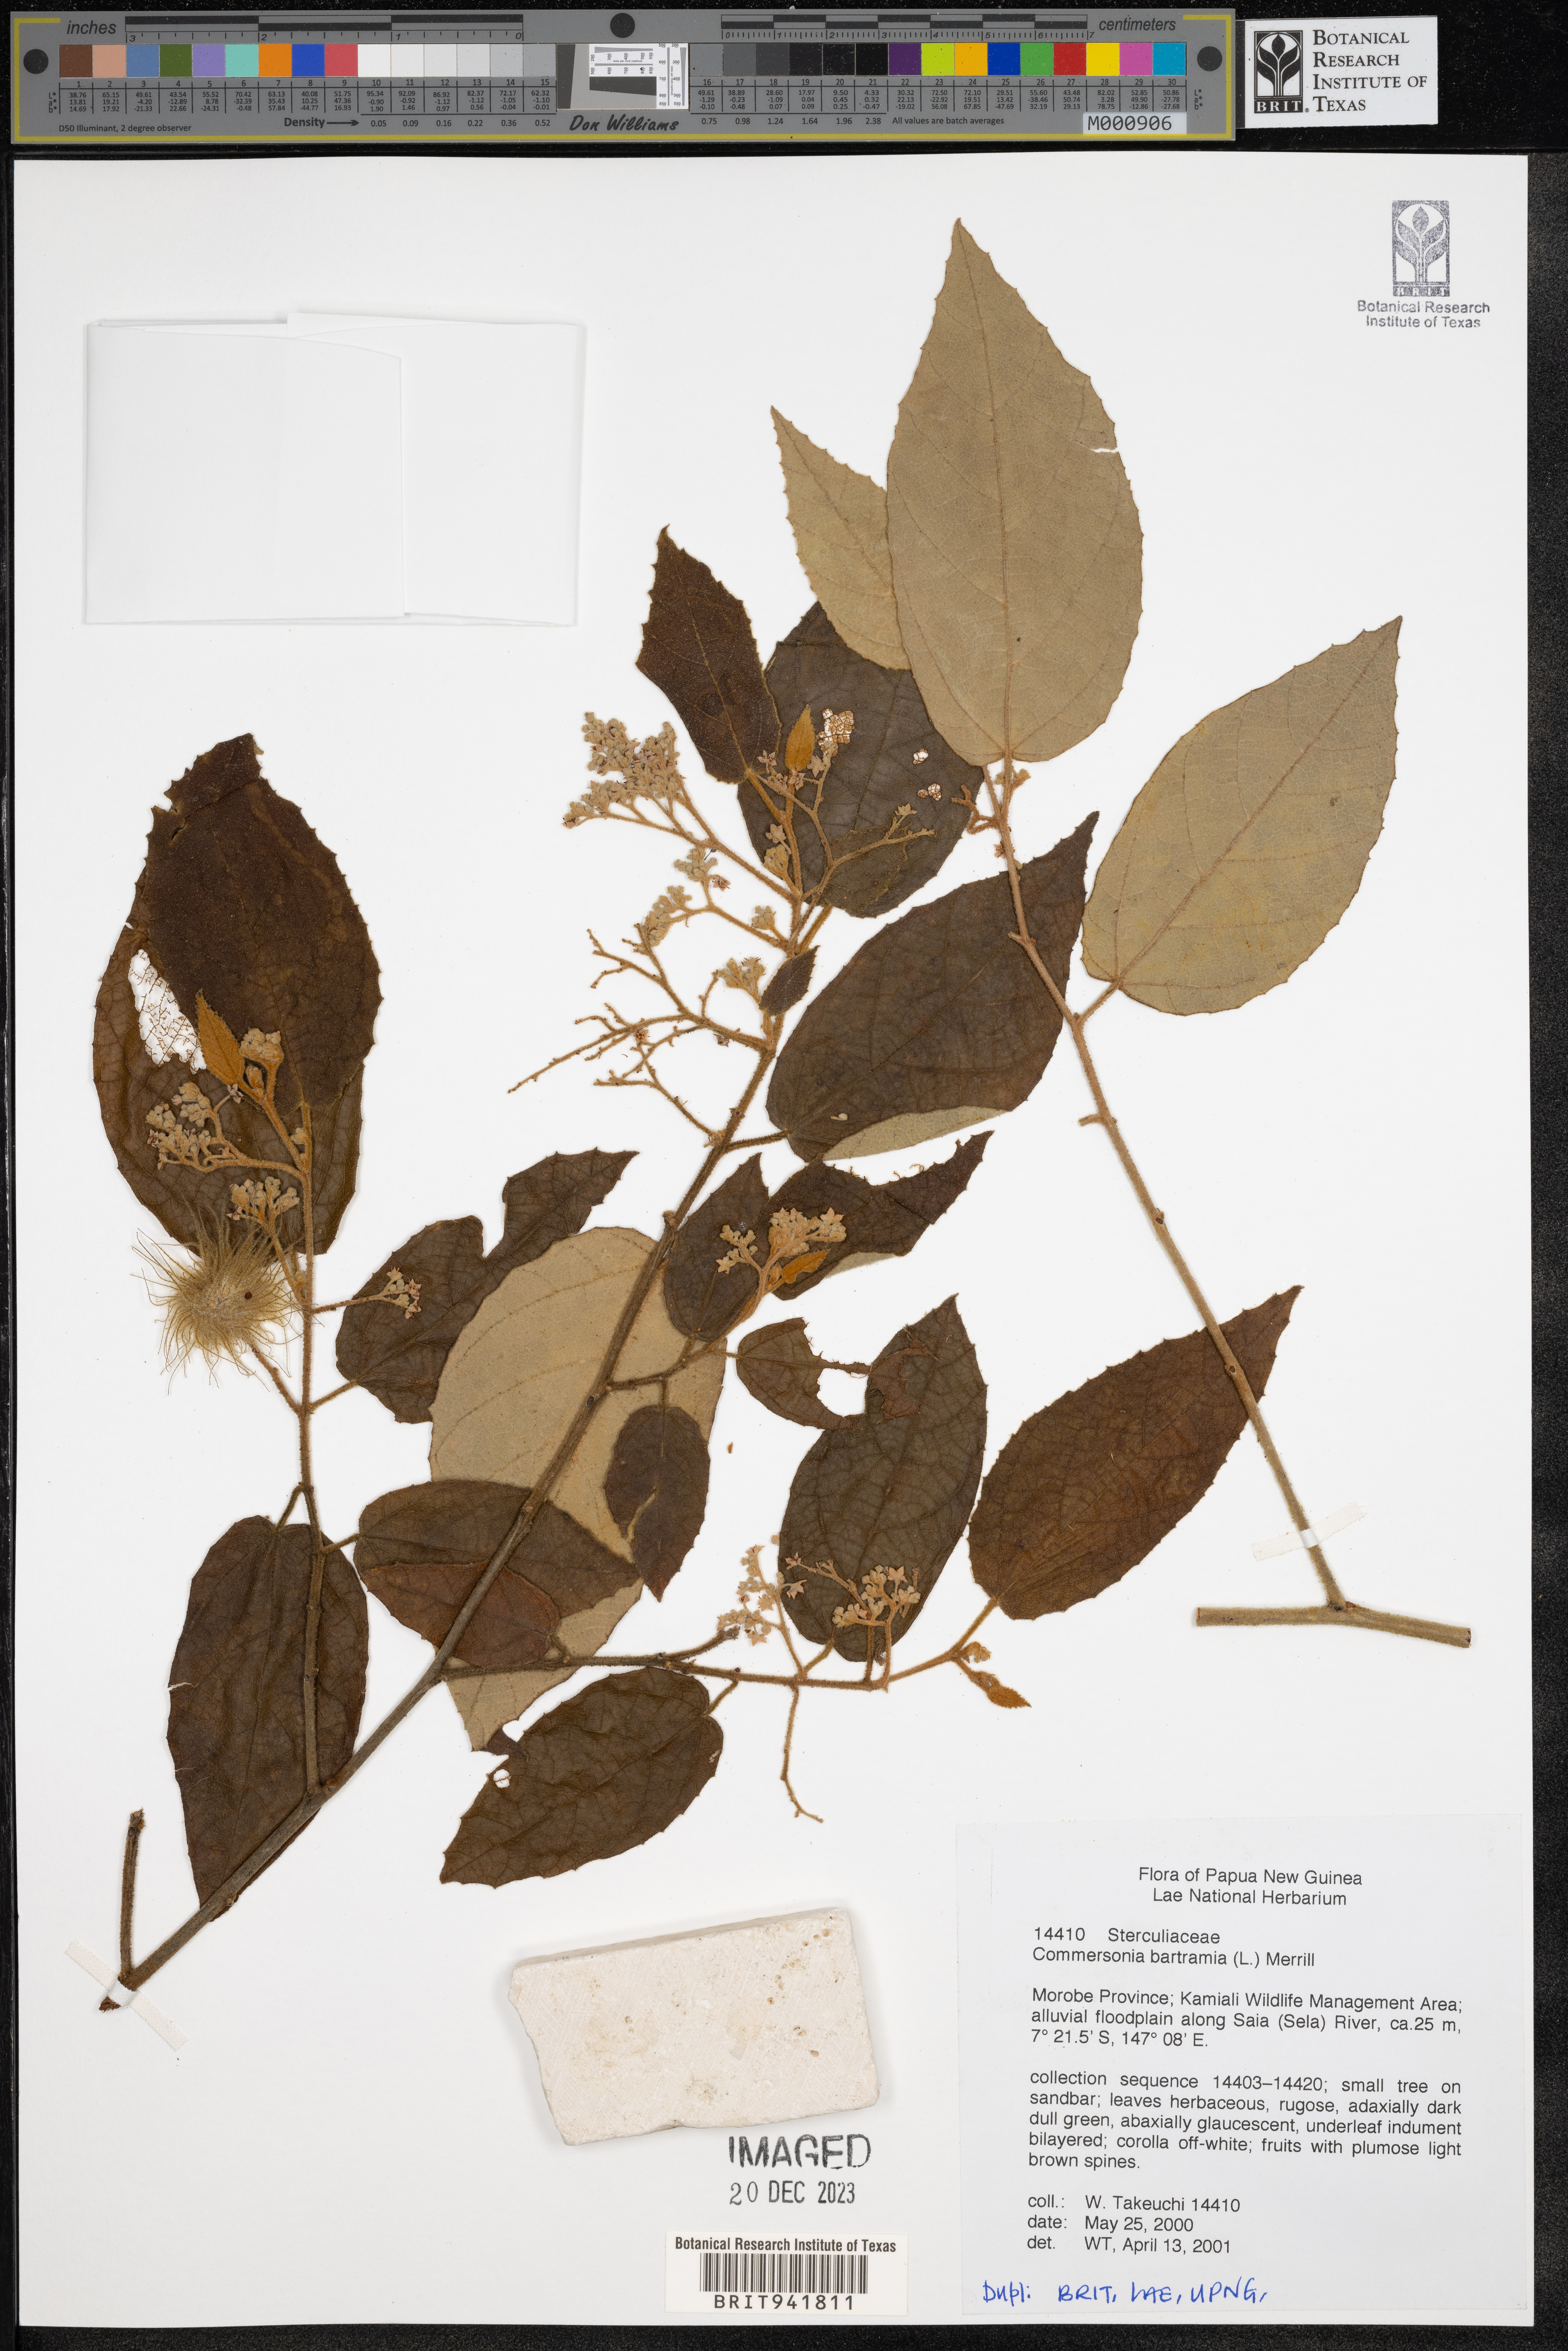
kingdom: Plantae
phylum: Tracheophyta
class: Magnoliopsida
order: Malvales
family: Malvaceae
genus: Commersonia
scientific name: Commersonia bartramia
